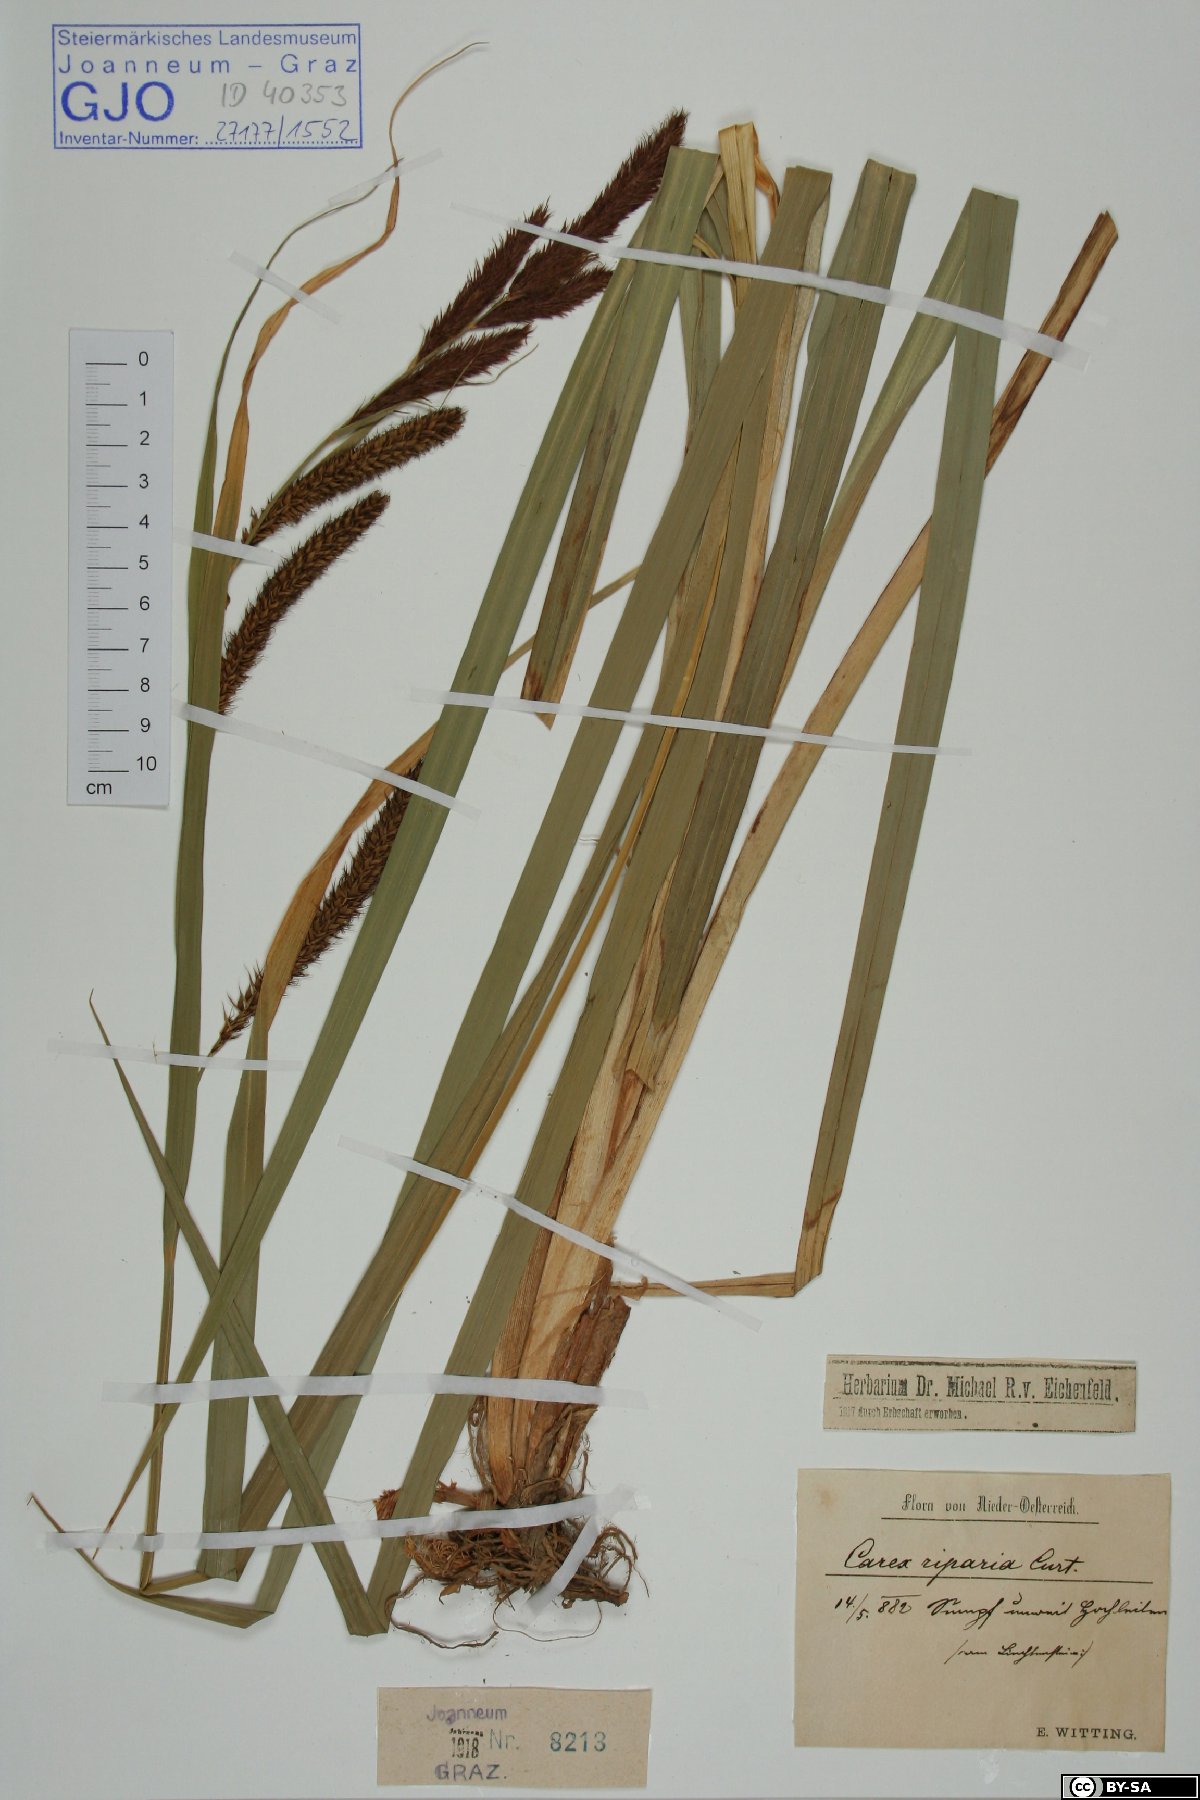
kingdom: Plantae
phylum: Tracheophyta
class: Liliopsida
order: Poales
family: Cyperaceae
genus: Carex
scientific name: Carex riparia
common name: Greater pond-sedge
